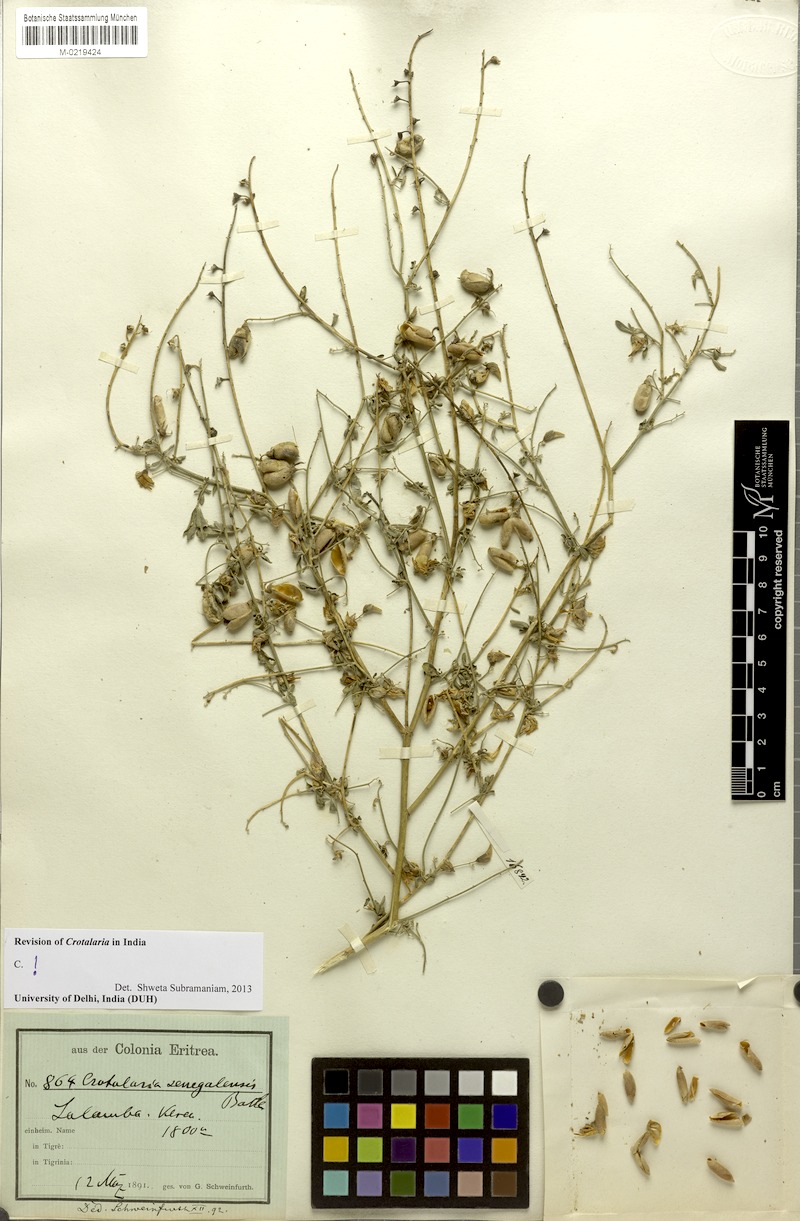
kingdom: Plantae
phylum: Tracheophyta
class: Magnoliopsida
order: Fabales
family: Fabaceae
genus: Crotalaria
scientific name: Crotalaria senegalensis
